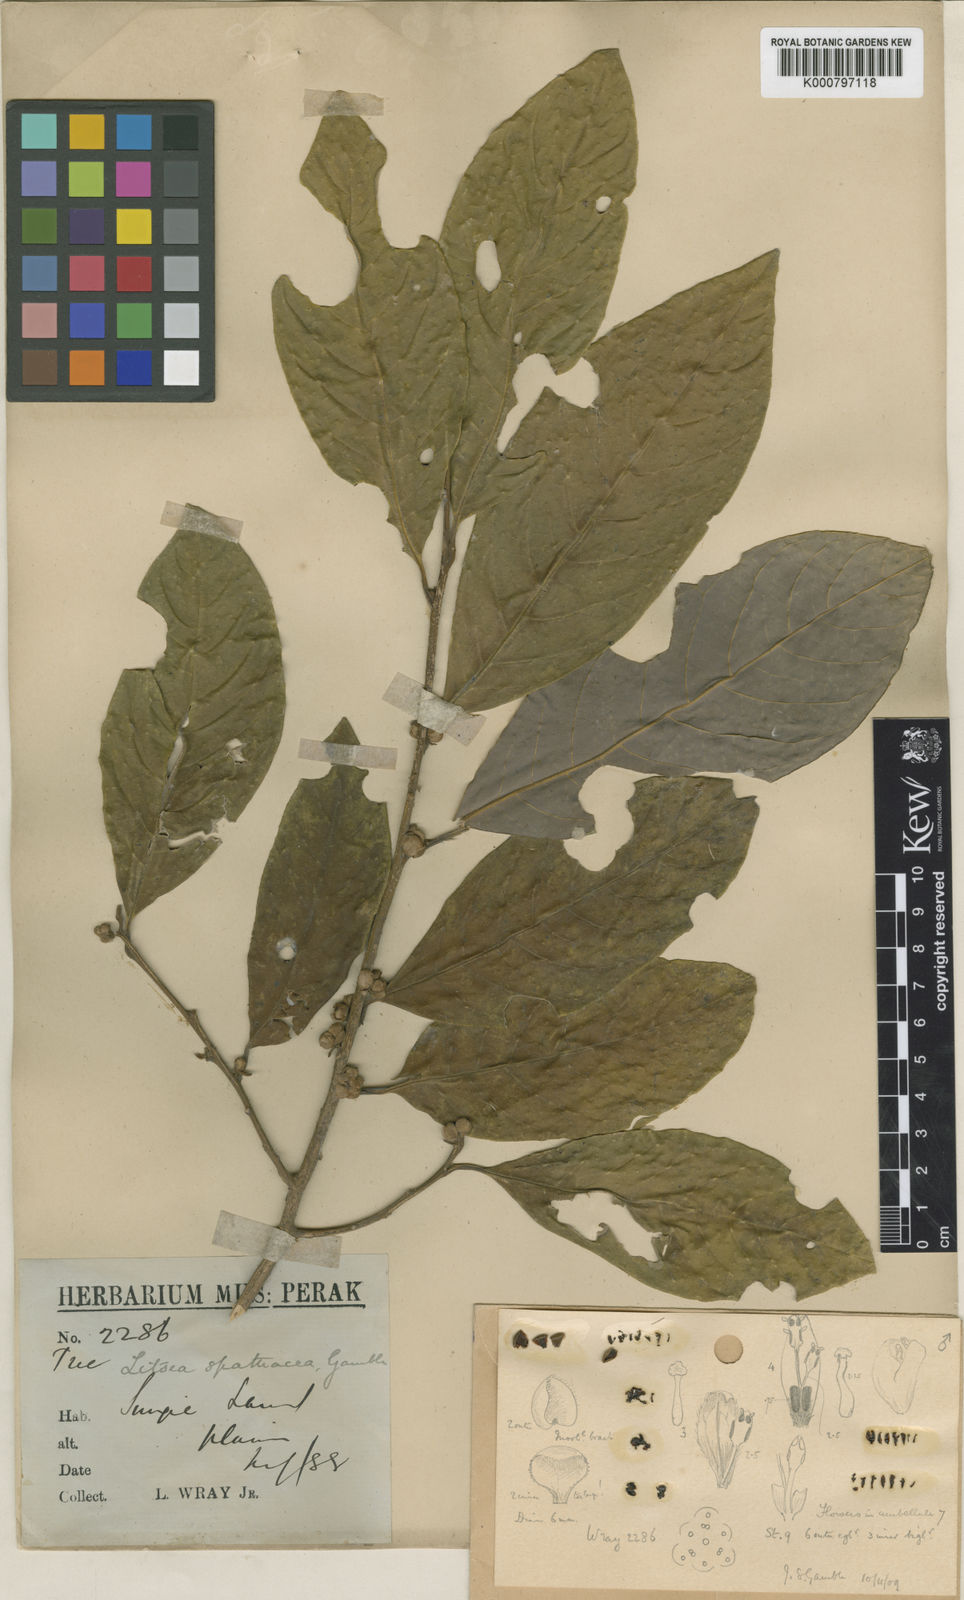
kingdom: Plantae
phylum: Tracheophyta
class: Magnoliopsida
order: Laurales
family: Lauraceae
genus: Litsea
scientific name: Litsea spathacea
